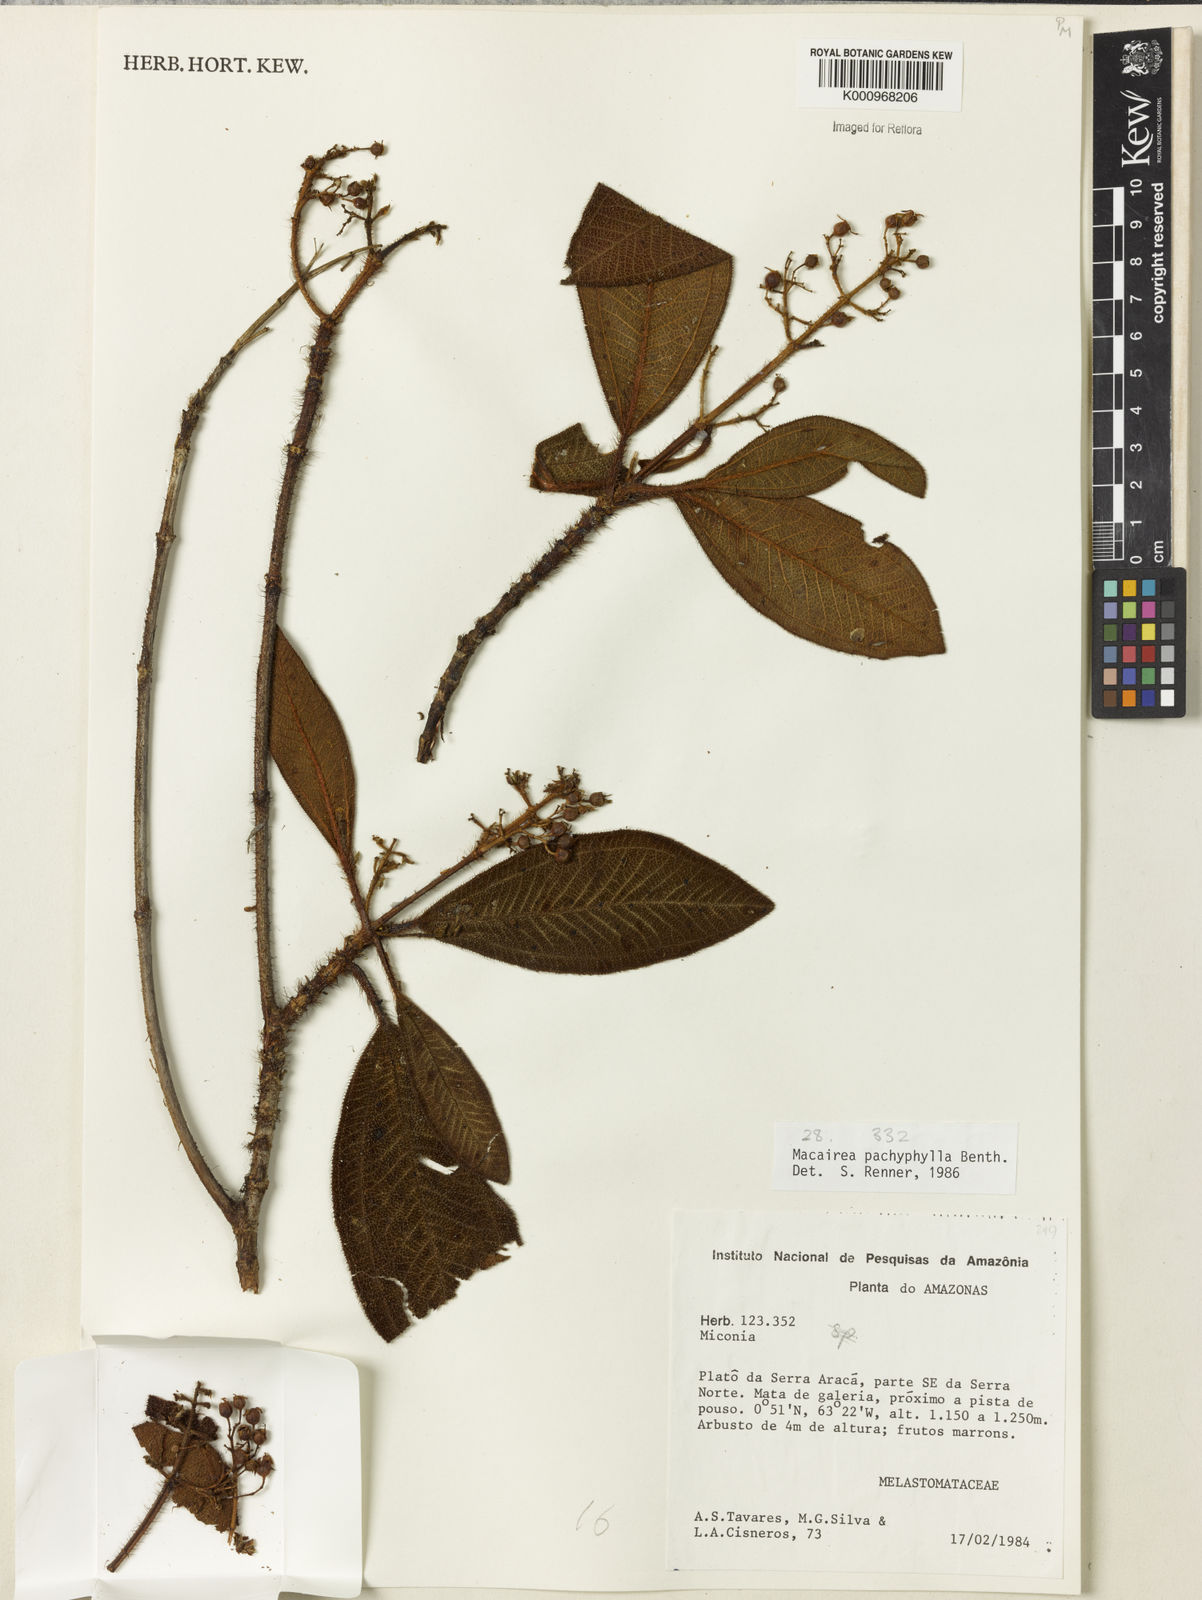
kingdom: Plantae
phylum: Tracheophyta
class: Magnoliopsida
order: Myrtales
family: Melastomataceae
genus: Macairea
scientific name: Macairea pachyphylla
